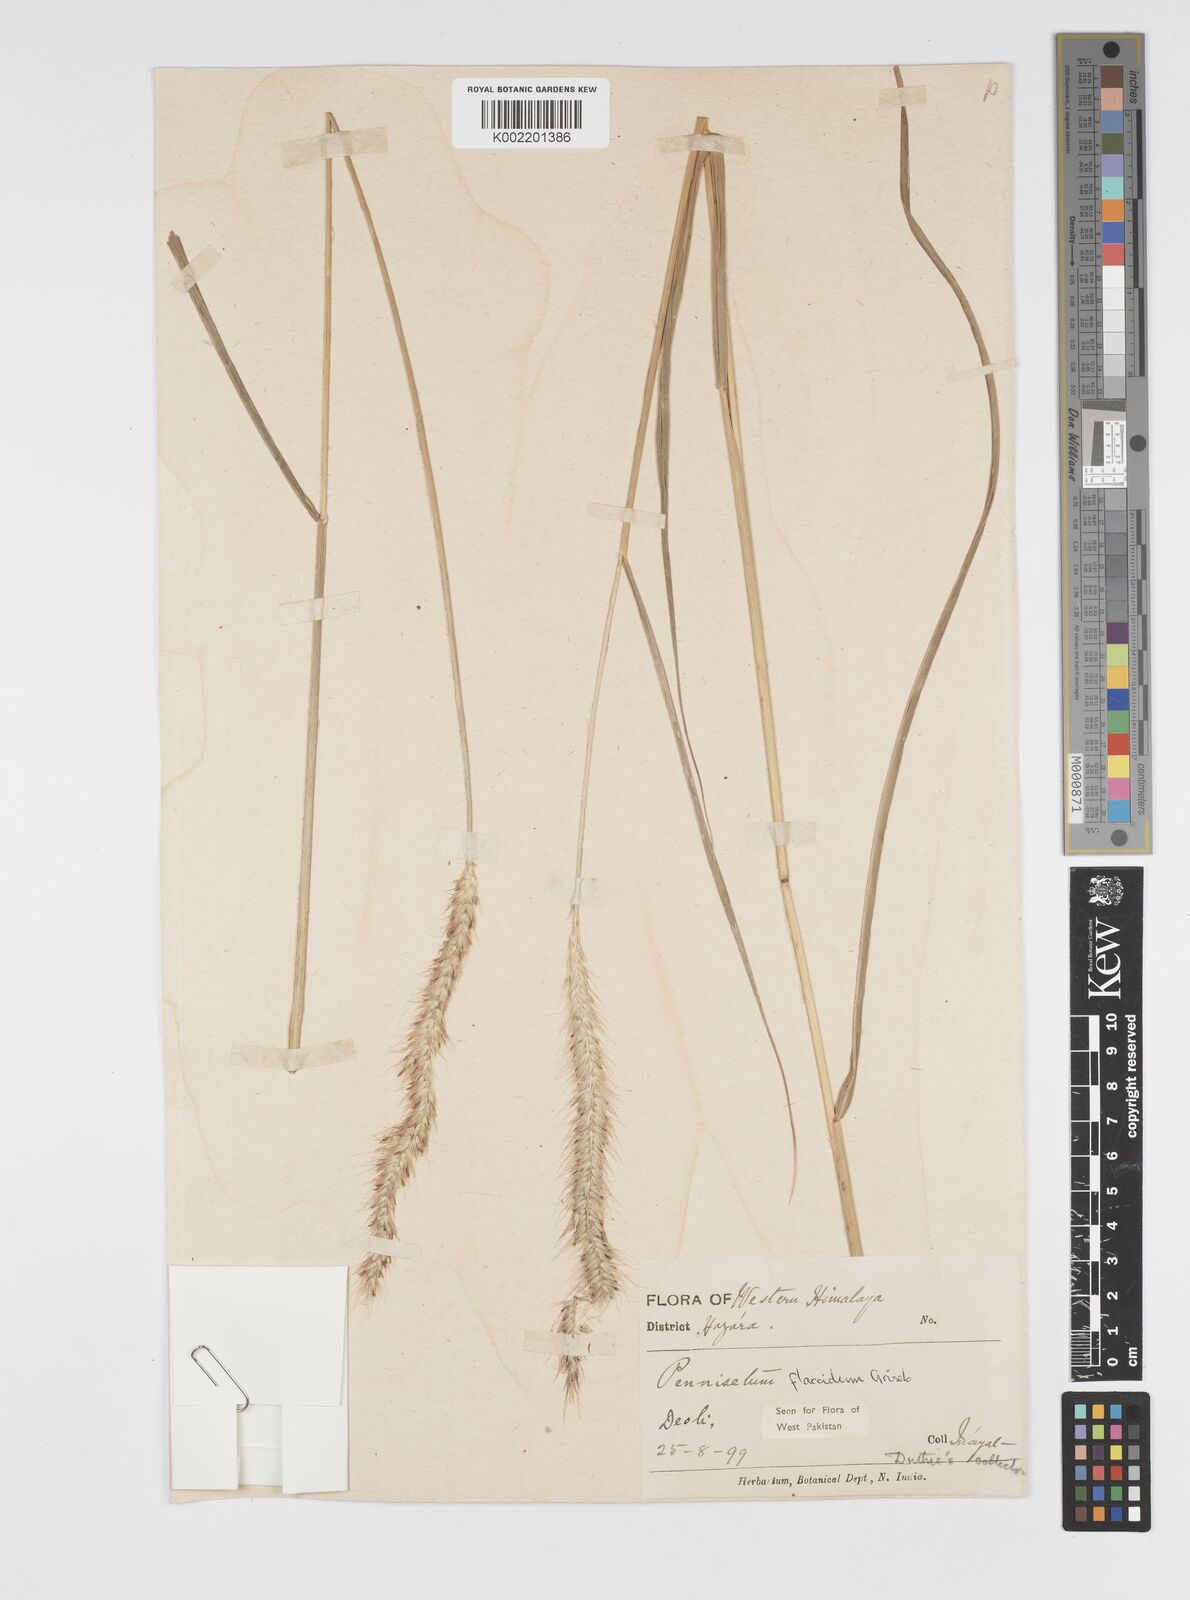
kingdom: Plantae
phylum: Tracheophyta
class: Liliopsida
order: Poales
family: Poaceae
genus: Cenchrus
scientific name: Cenchrus flaccidus
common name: Flaccid grass
